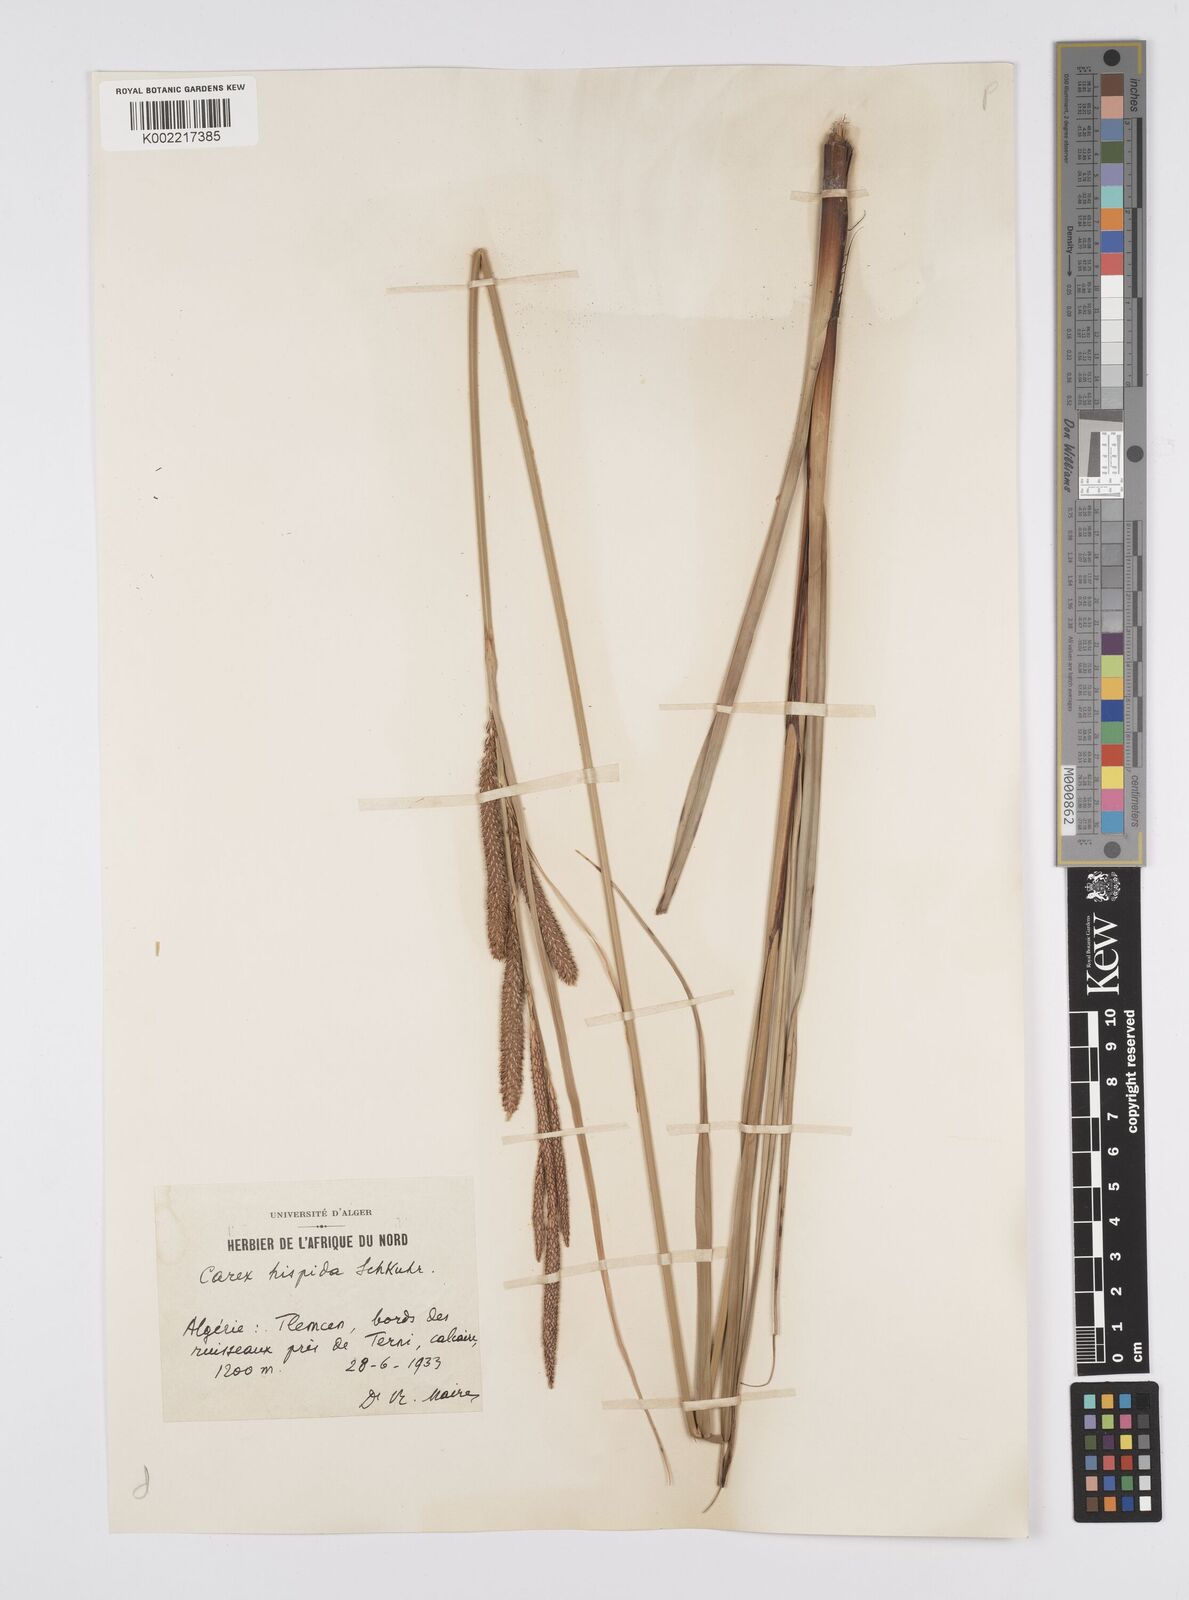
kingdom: Plantae
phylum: Tracheophyta
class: Liliopsida
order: Poales
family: Cyperaceae
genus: Carex
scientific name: Carex hispida
